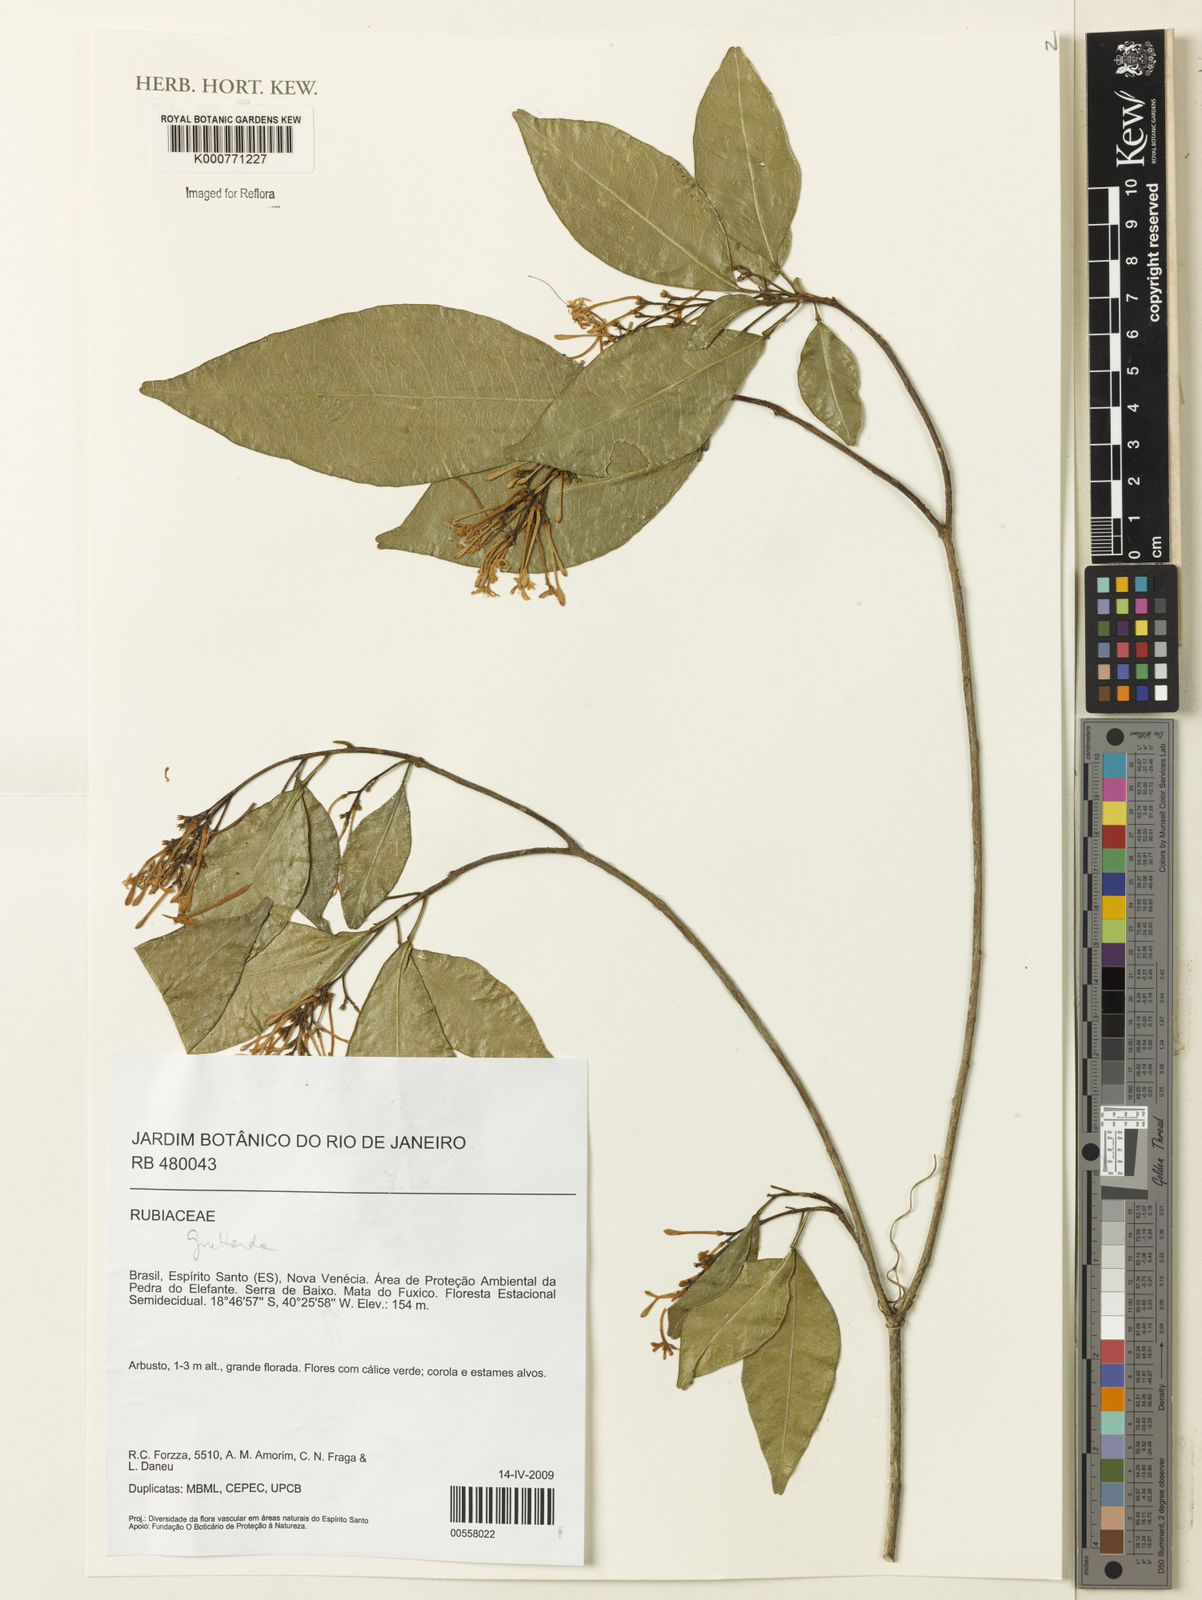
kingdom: Plantae
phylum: Tracheophyta
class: Magnoliopsida
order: Gentianales
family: Rubiaceae
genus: Guettarda
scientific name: Guettarda
